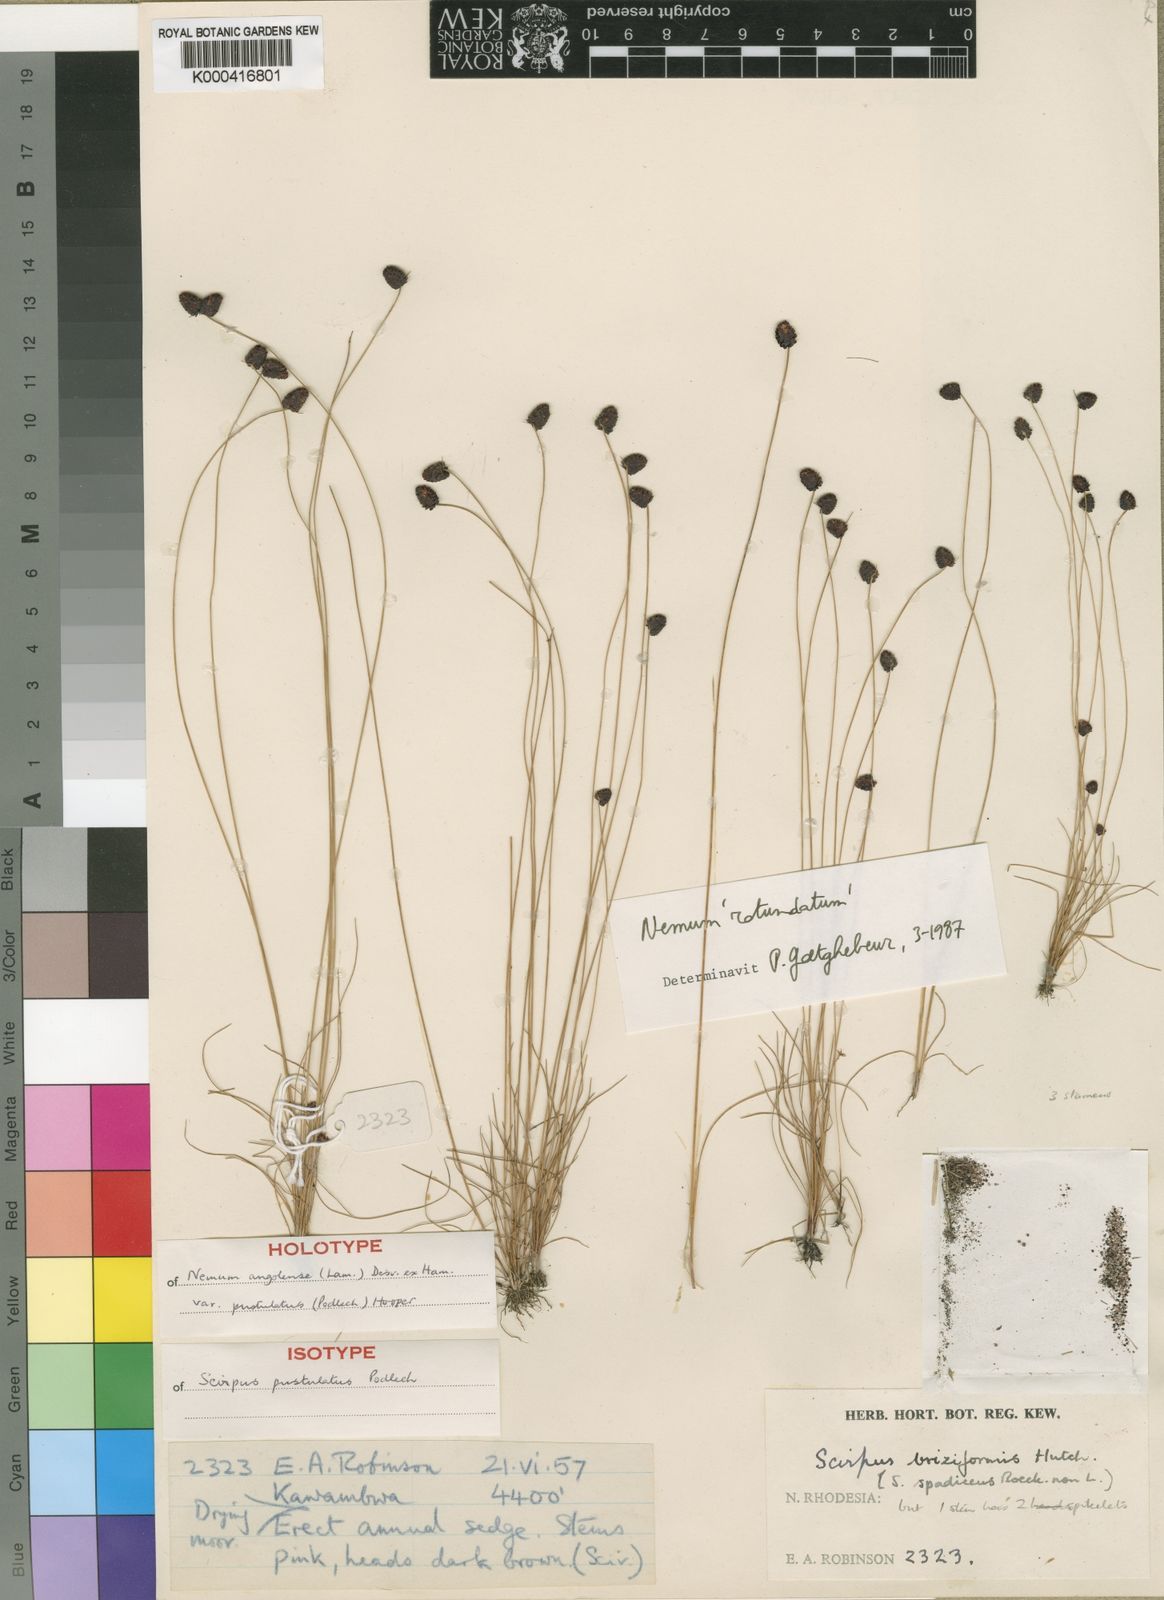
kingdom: Plantae
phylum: Tracheophyta
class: Liliopsida
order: Poales
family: Cyperaceae
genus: Bulbostylis
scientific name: Bulbostylis briziformis
